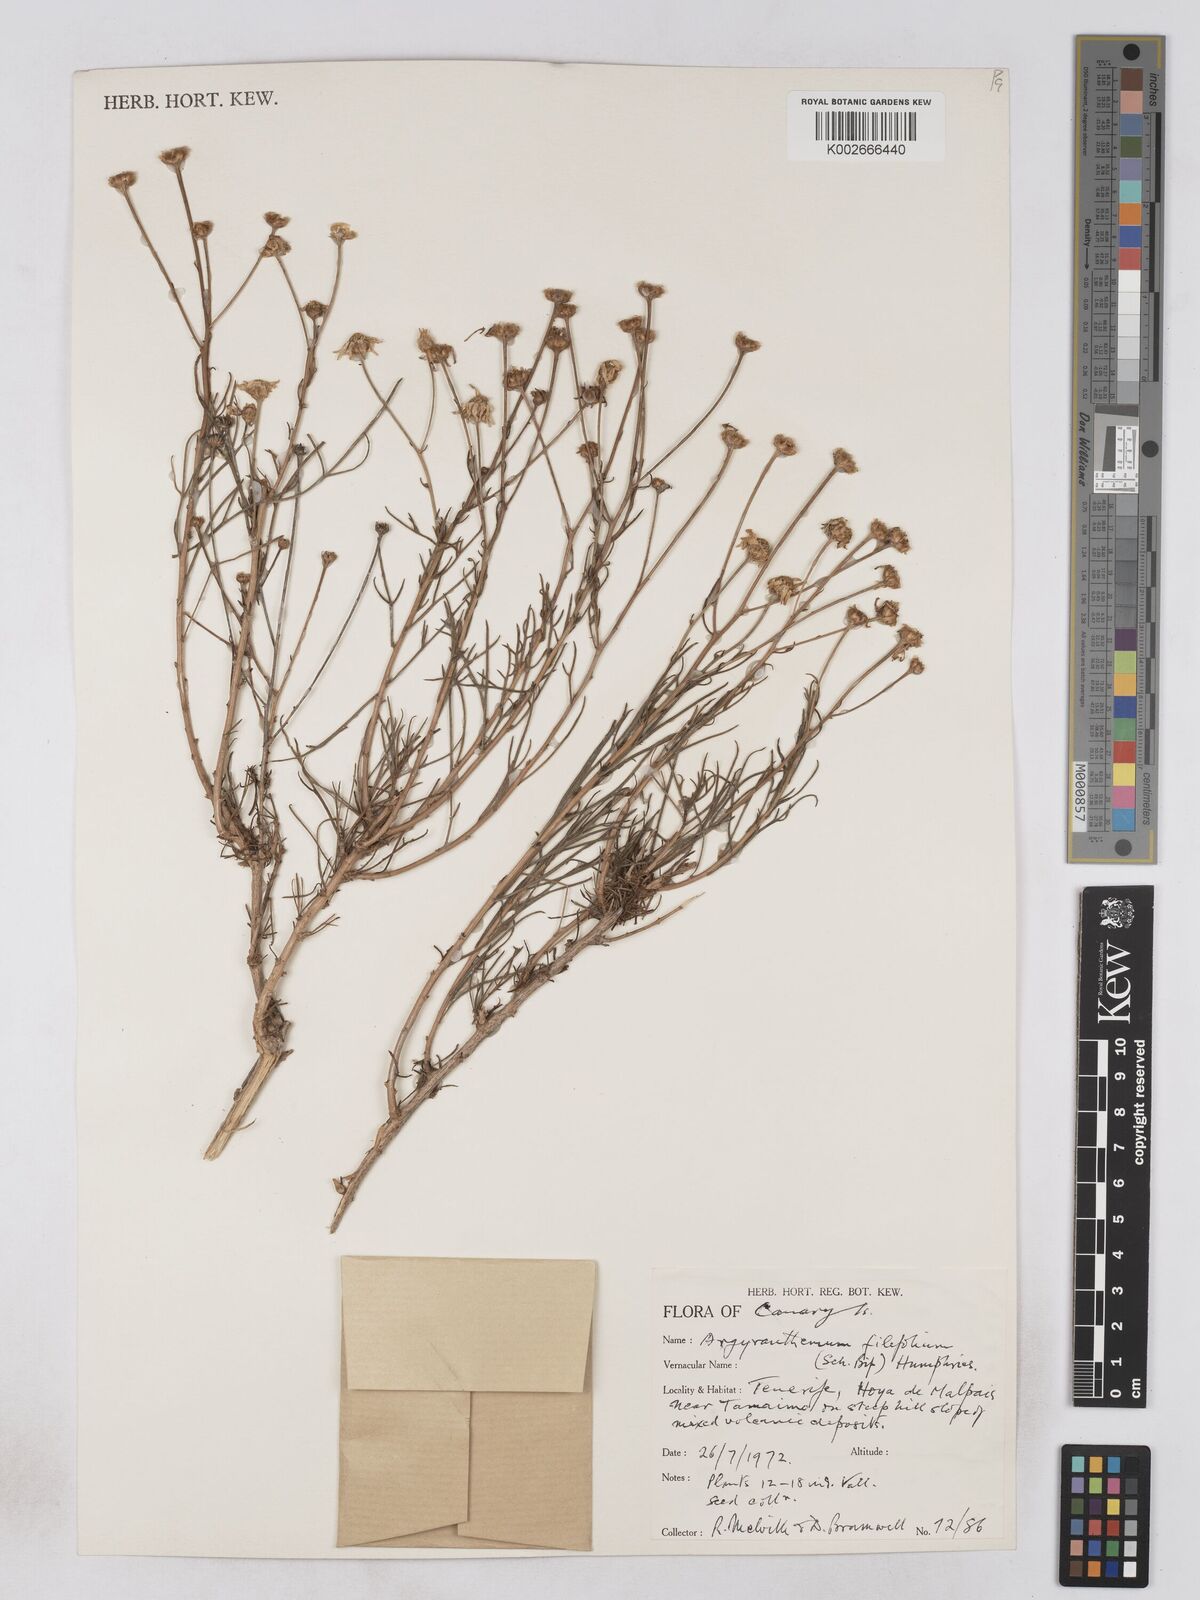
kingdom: Plantae
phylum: Tracheophyta
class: Magnoliopsida
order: Asterales
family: Asteraceae
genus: Argyranthemum
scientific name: Argyranthemum gracile
